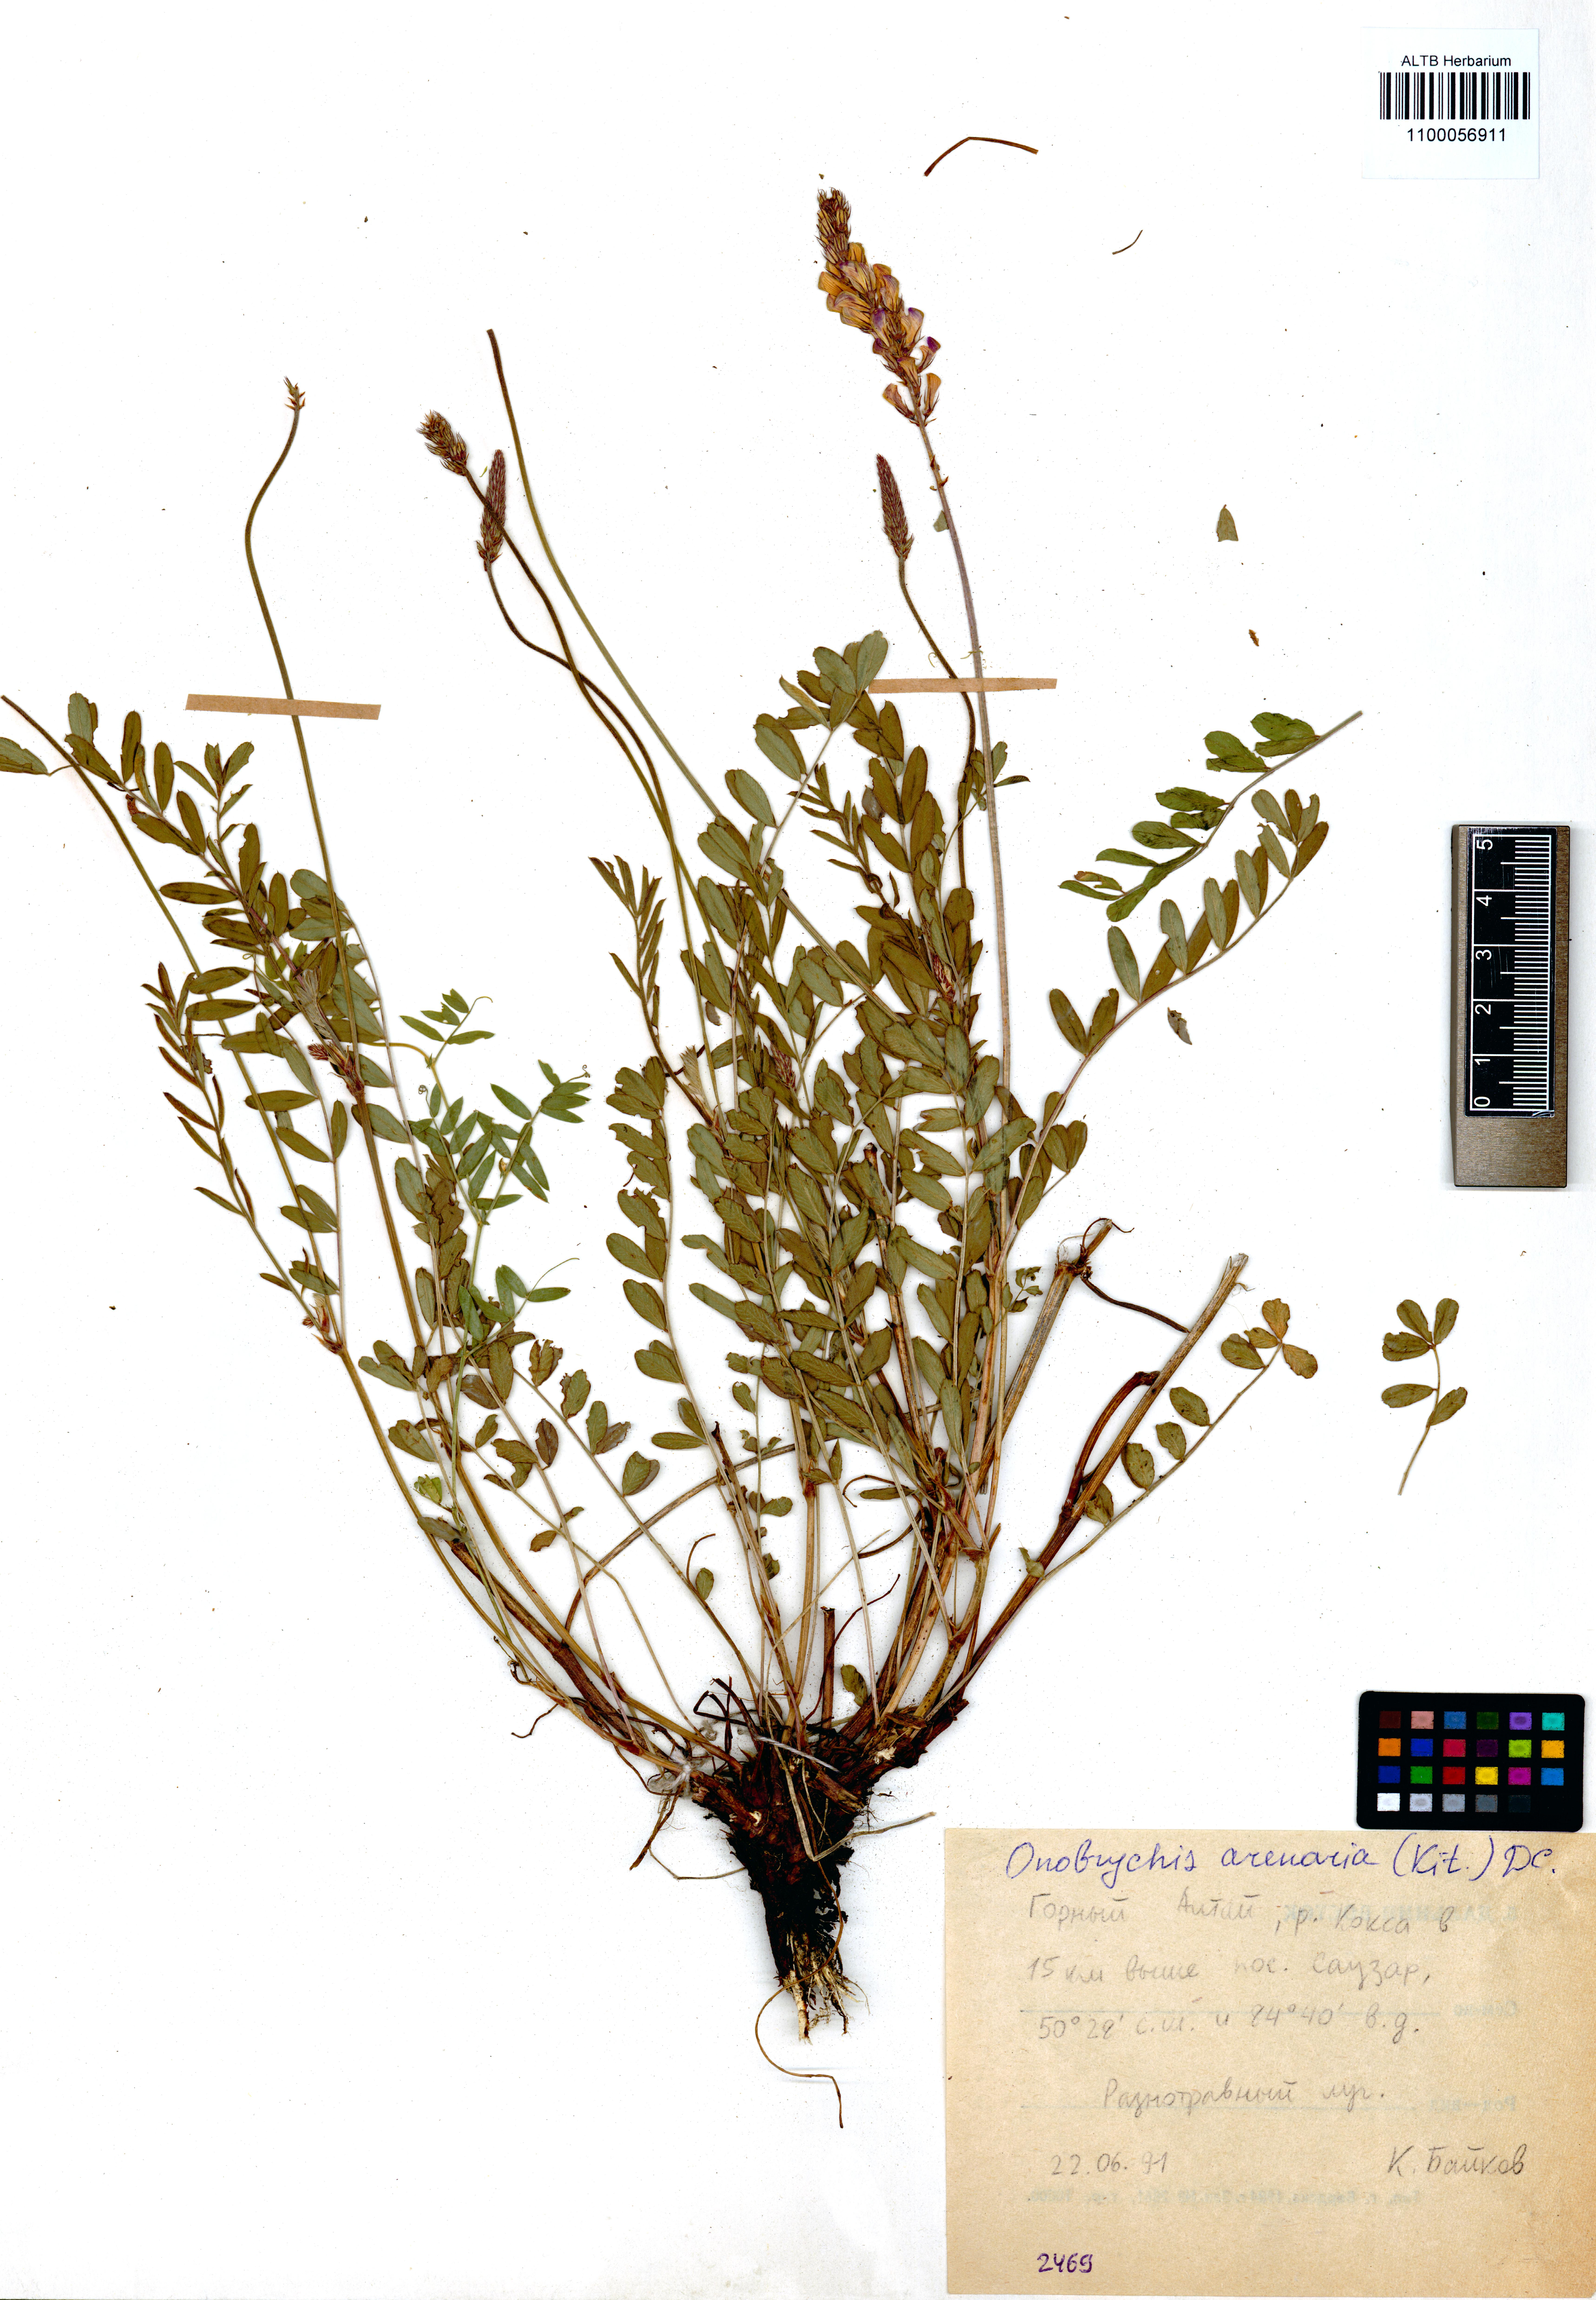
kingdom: Plantae
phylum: Tracheophyta
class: Magnoliopsida
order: Fabales
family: Fabaceae
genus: Onobrychis
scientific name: Onobrychis arenaria
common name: Sand esparcet
